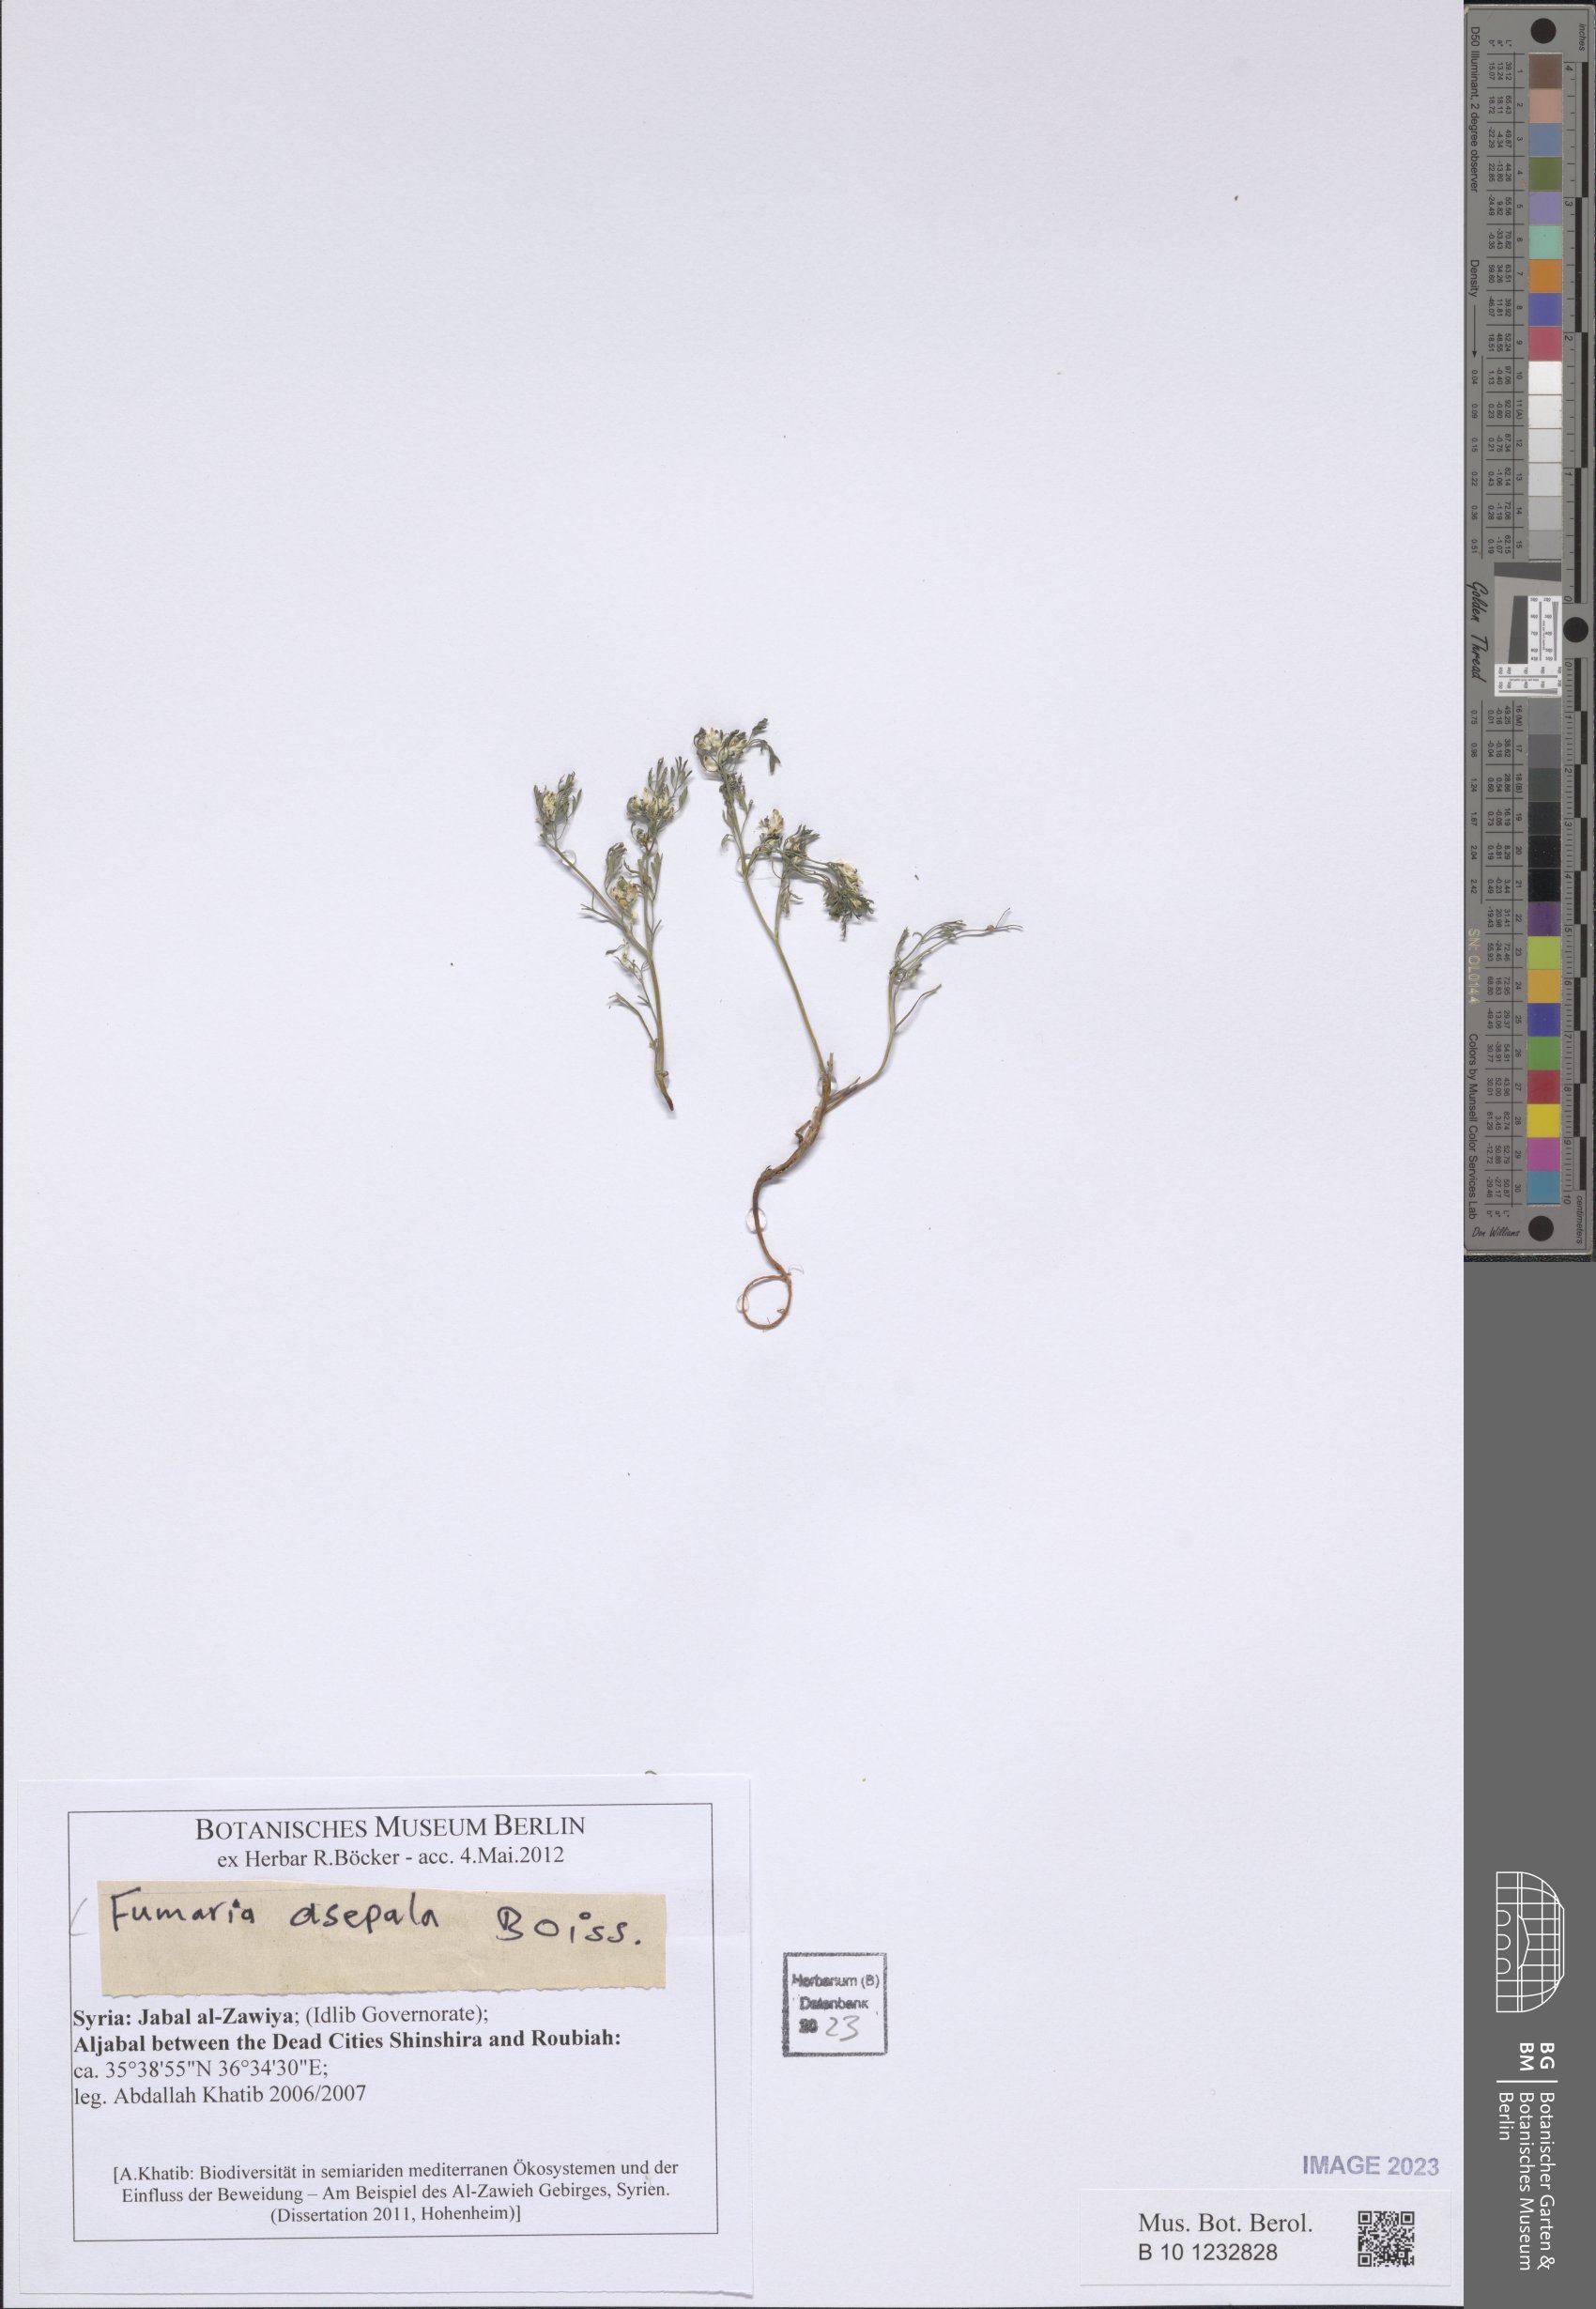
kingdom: Plantae
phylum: Tracheophyta
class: Magnoliopsida
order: Ranunculales
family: Papaveraceae
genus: Fumaria
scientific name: Fumaria asepala
